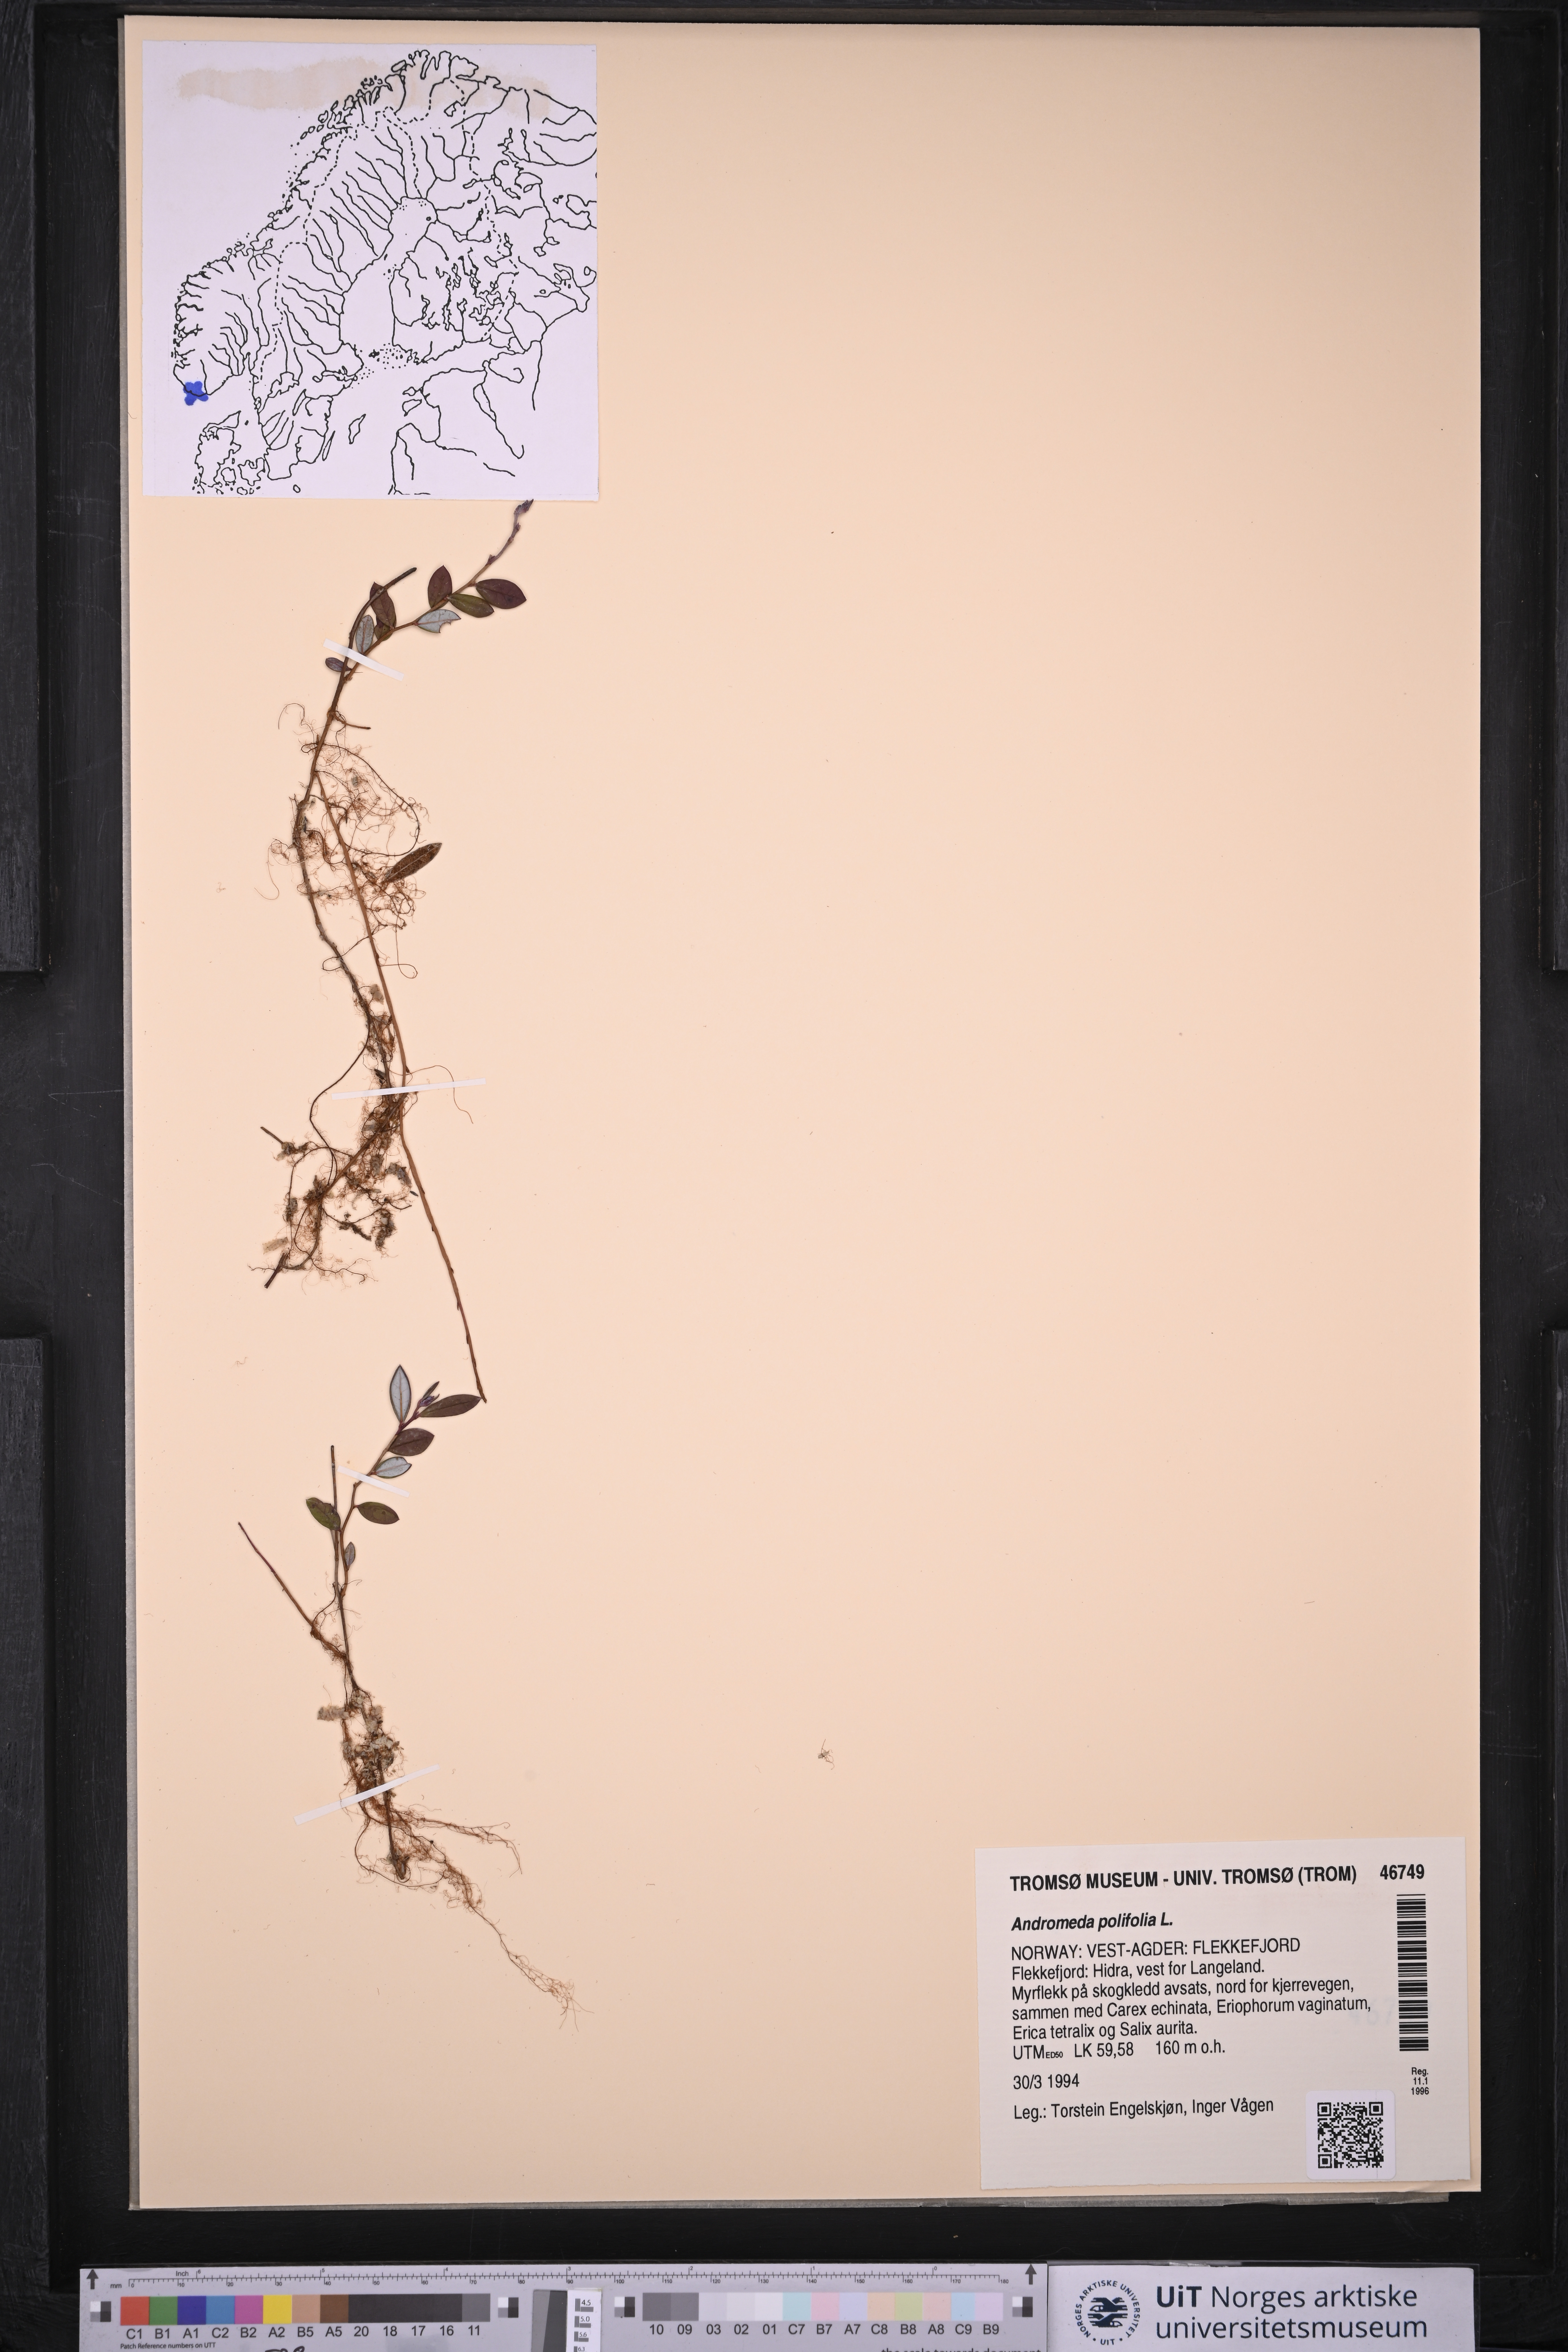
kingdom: Plantae
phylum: Tracheophyta
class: Magnoliopsida
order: Ericales
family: Ericaceae
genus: Andromeda
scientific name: Andromeda polifolia
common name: Bog-rosemary
